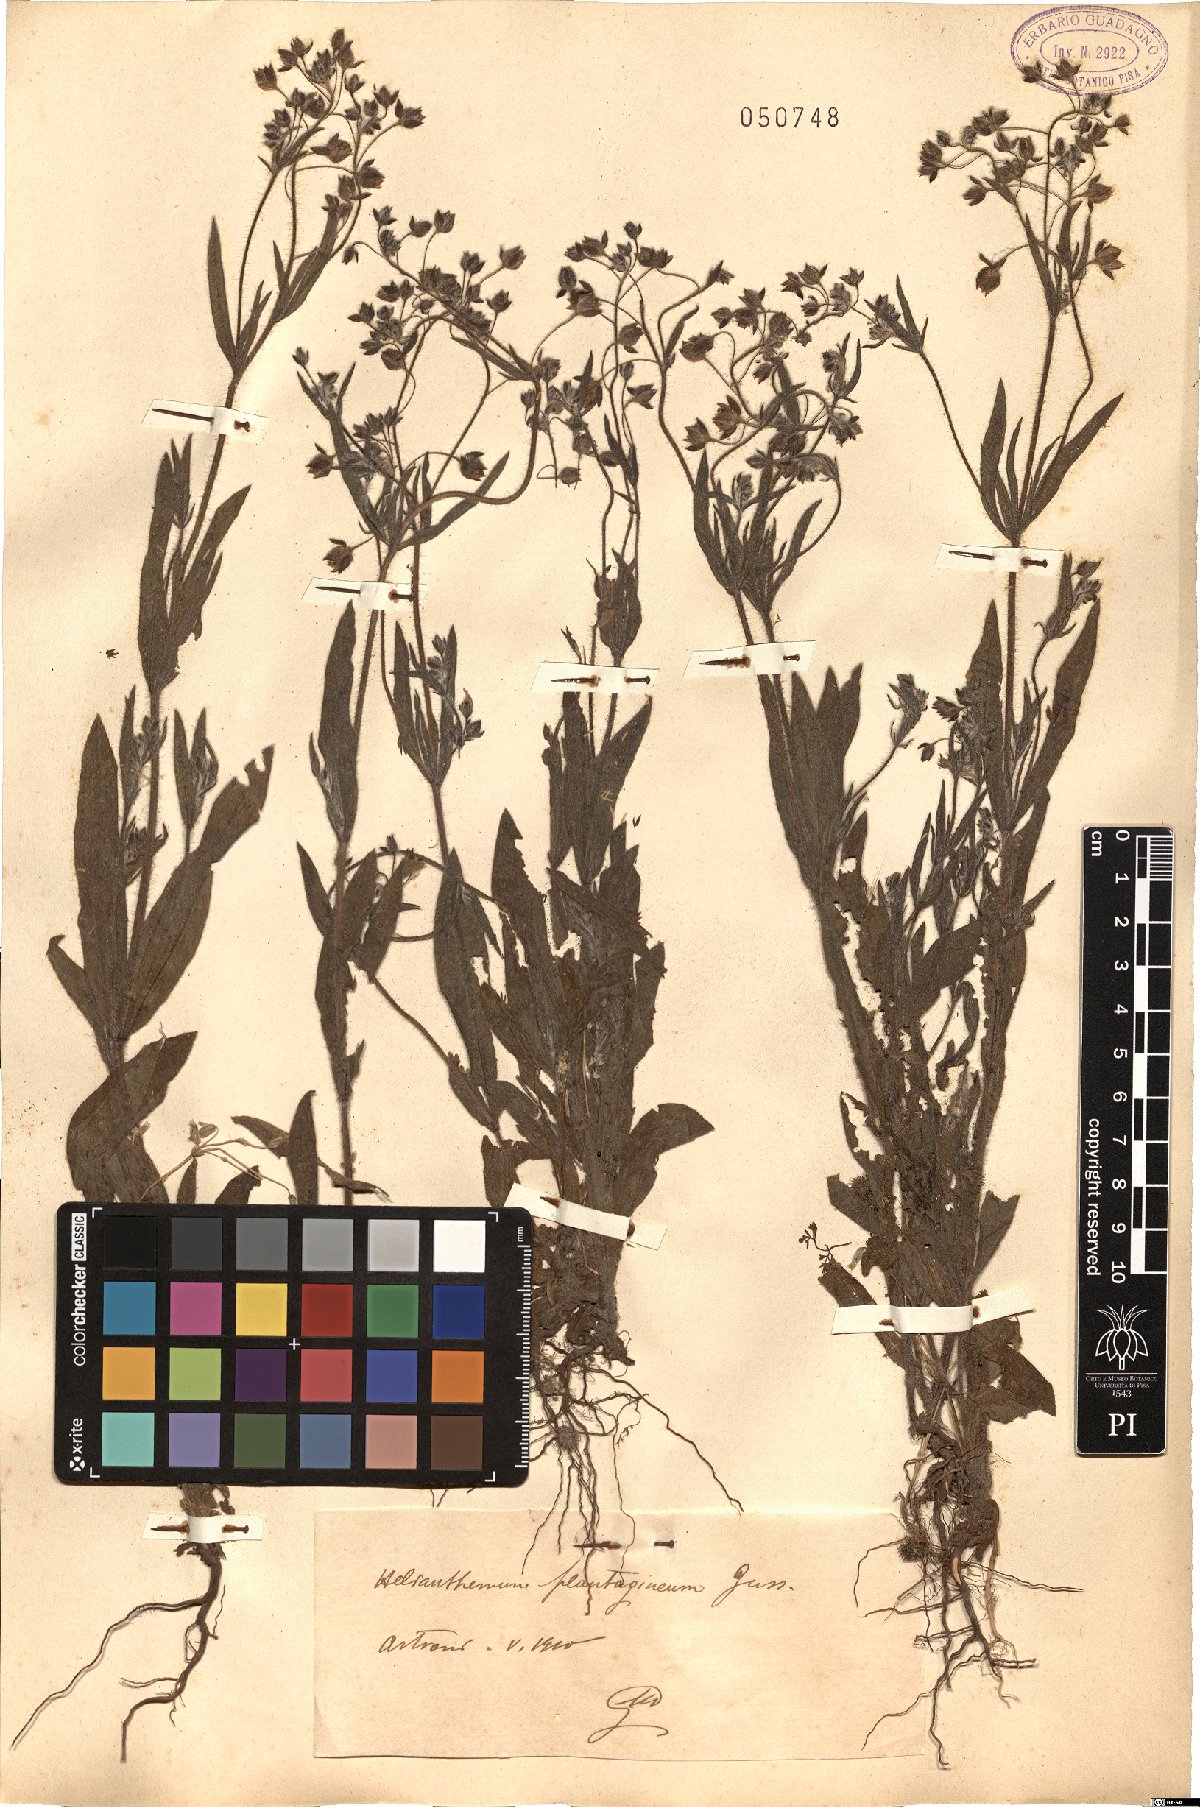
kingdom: Plantae
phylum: Tracheophyta
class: Magnoliopsida
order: Malvales
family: Cistaceae
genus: Tuberaria
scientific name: Tuberaria inconspicua
